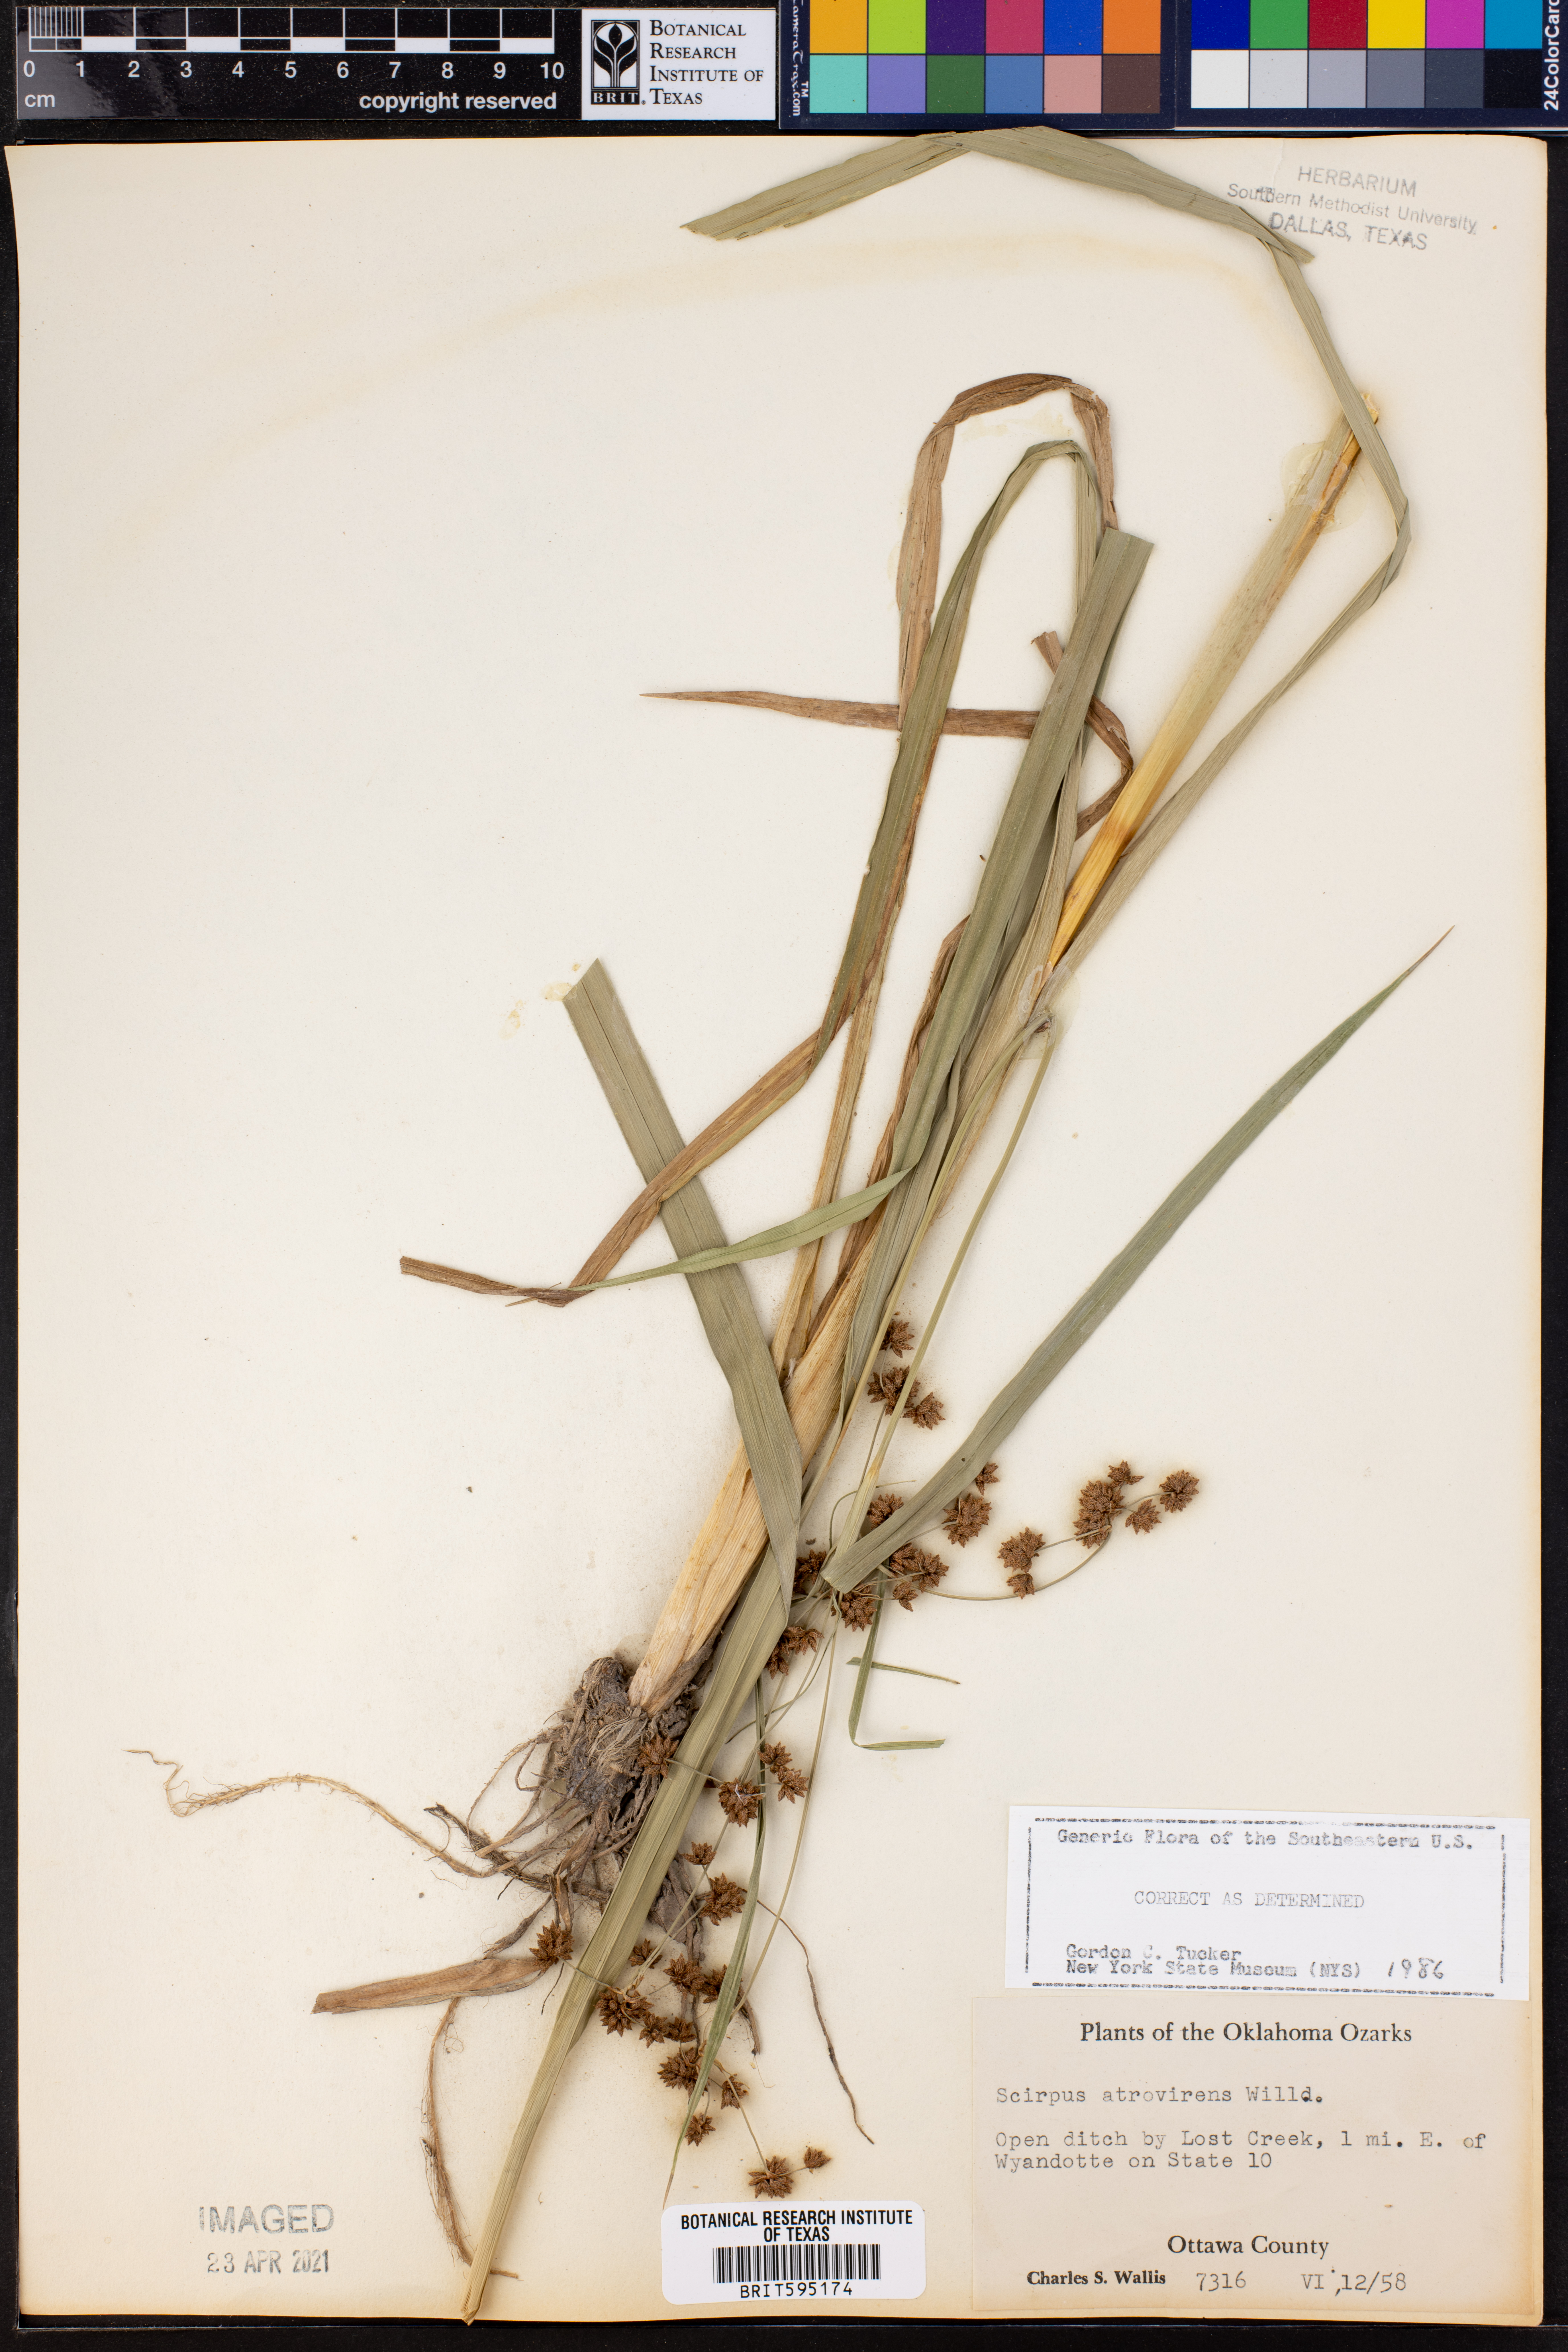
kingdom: Plantae
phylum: Tracheophyta
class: Liliopsida
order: Poales
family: Cyperaceae
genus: Scirpus
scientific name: Scirpus atrovirens
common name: Black bulrush
